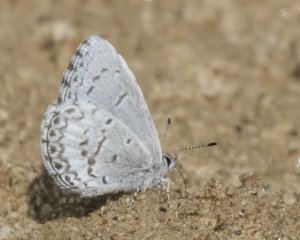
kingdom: Animalia
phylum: Arthropoda
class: Insecta
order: Lepidoptera
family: Lycaenidae
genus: Cyaniris
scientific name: Cyaniris neglecta
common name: Summer Azure
